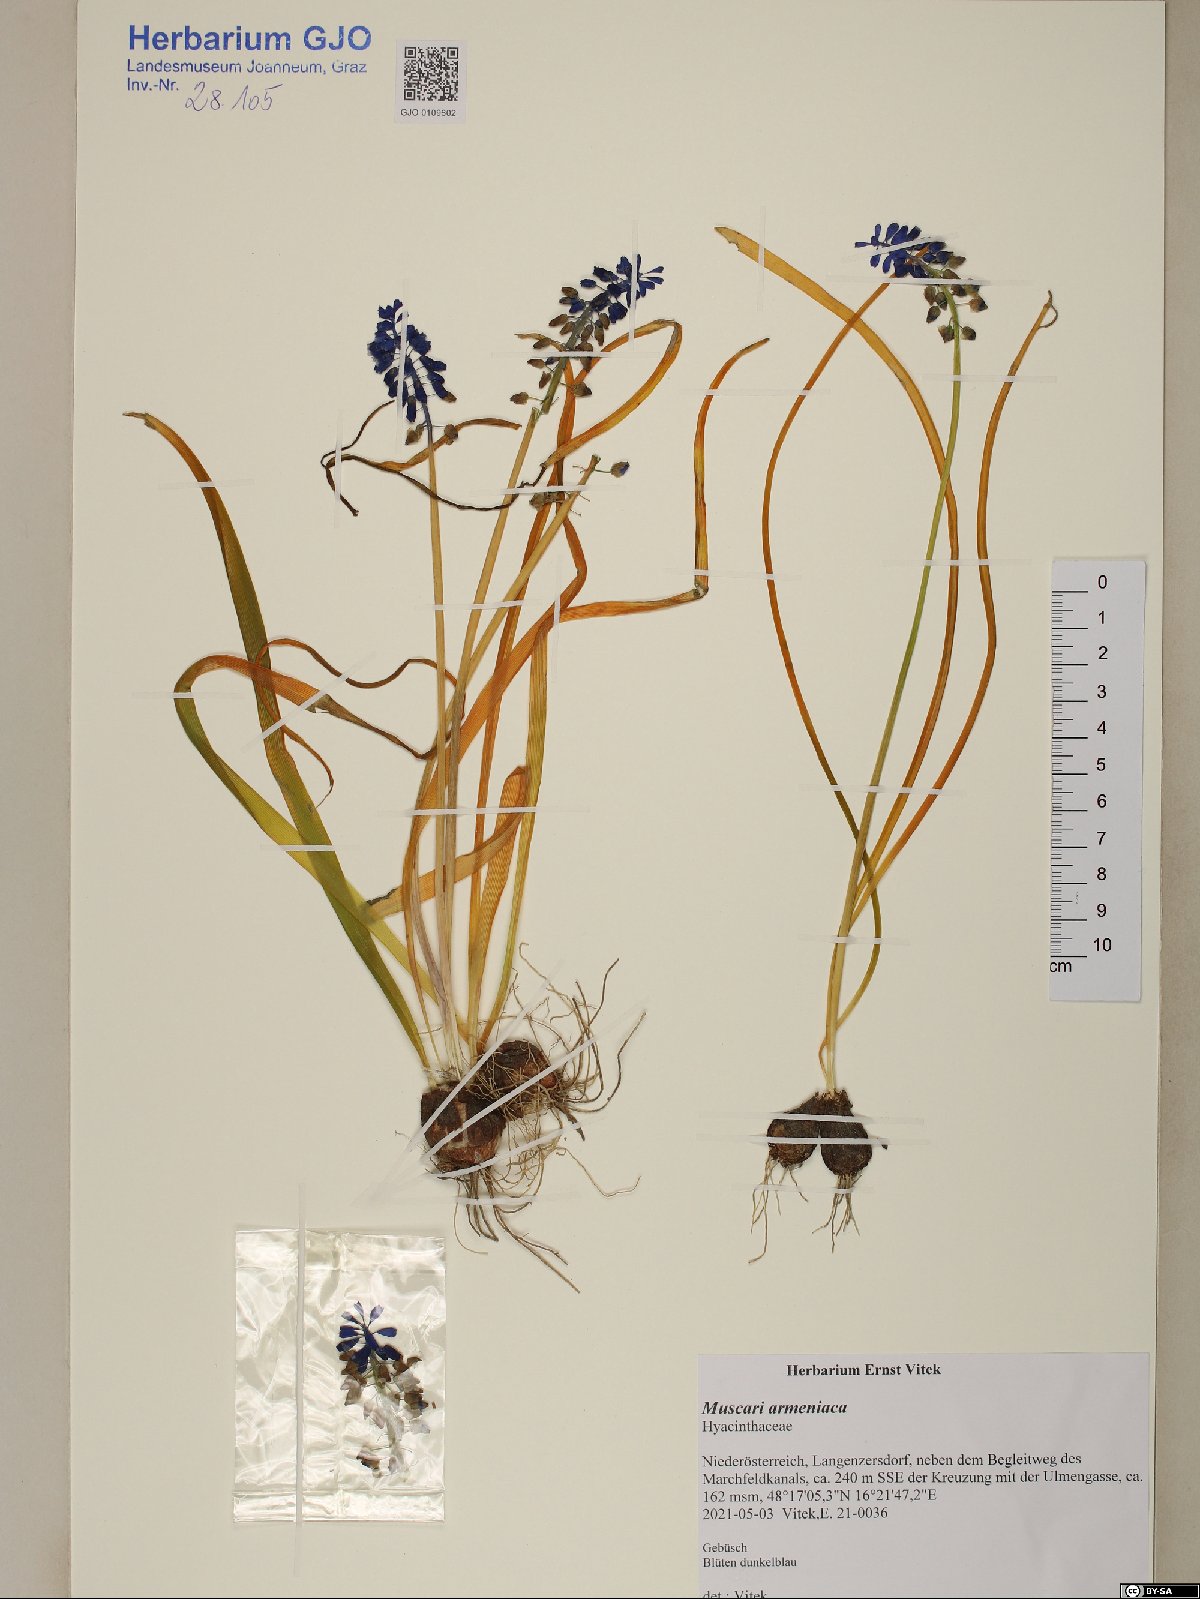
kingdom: Plantae
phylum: Tracheophyta
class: Liliopsida
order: Asparagales
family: Asparagaceae
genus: Muscari
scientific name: Muscari armeniacum
